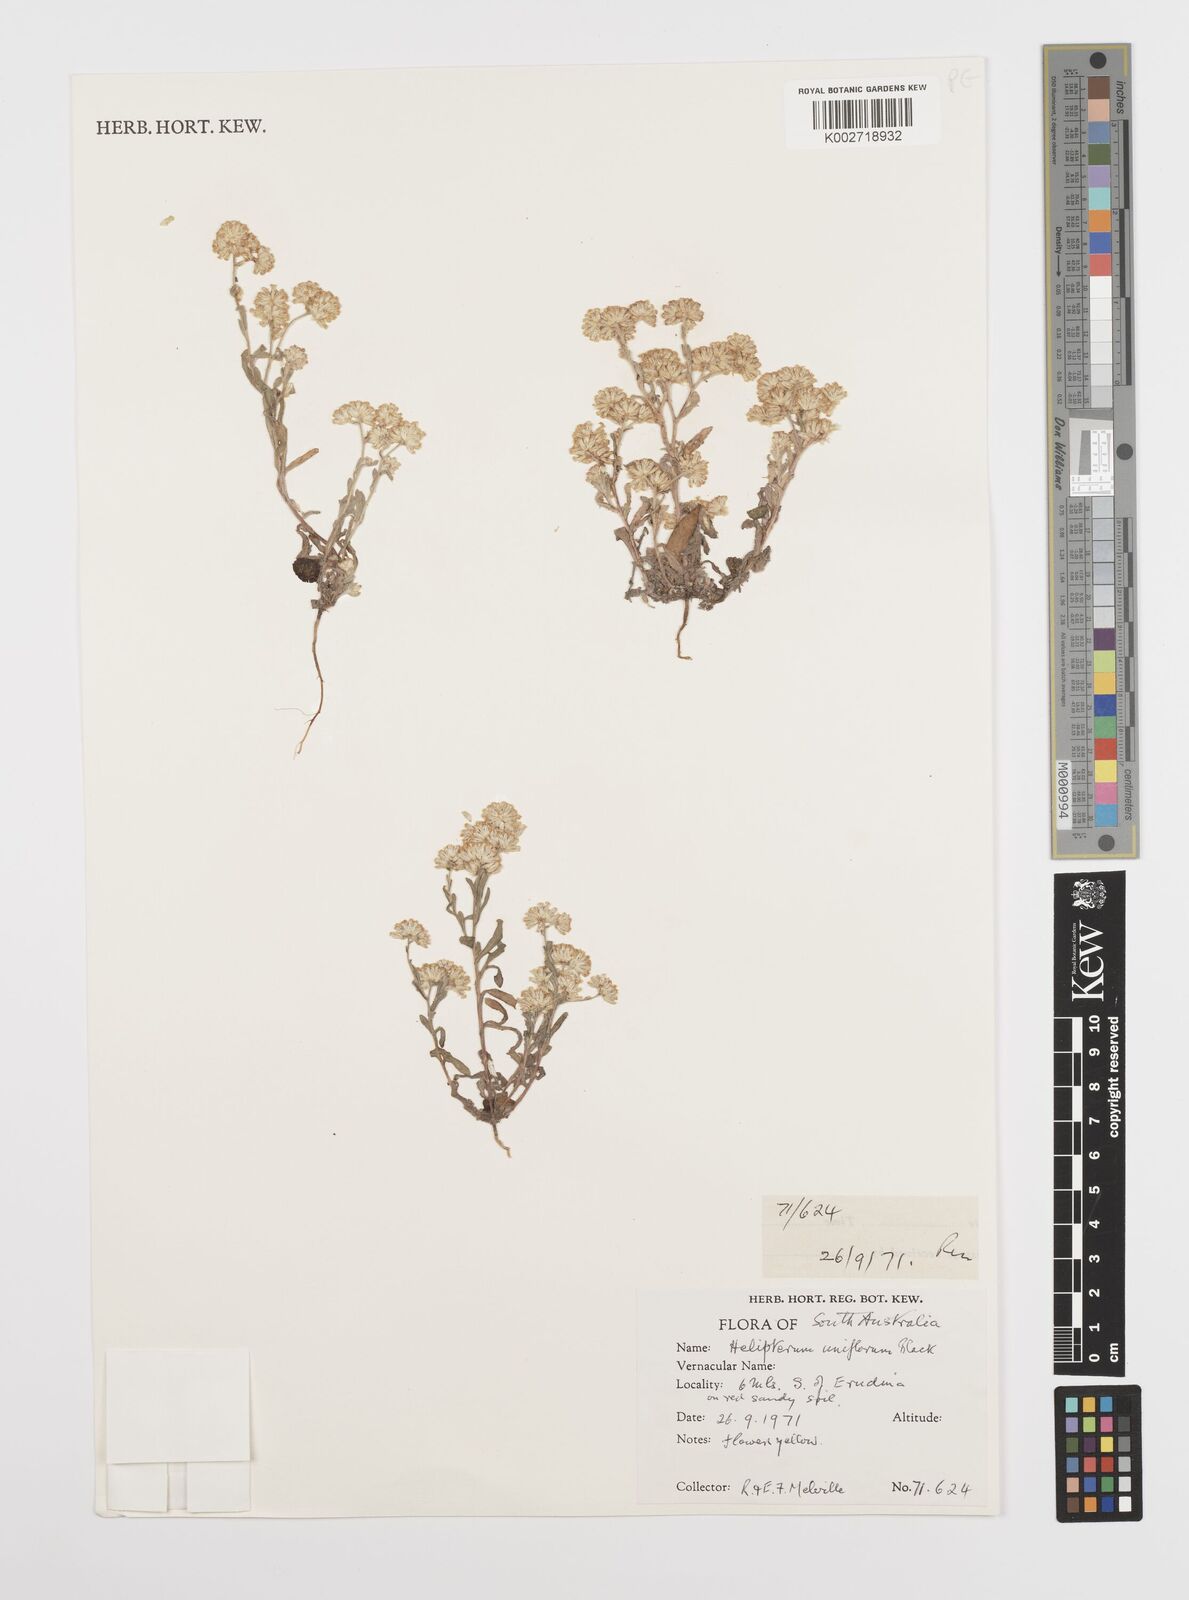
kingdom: Plantae
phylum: Tracheophyta
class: Magnoliopsida
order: Asterales
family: Asteraceae
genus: Rhodanthe
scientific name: Rhodanthe uniflora
